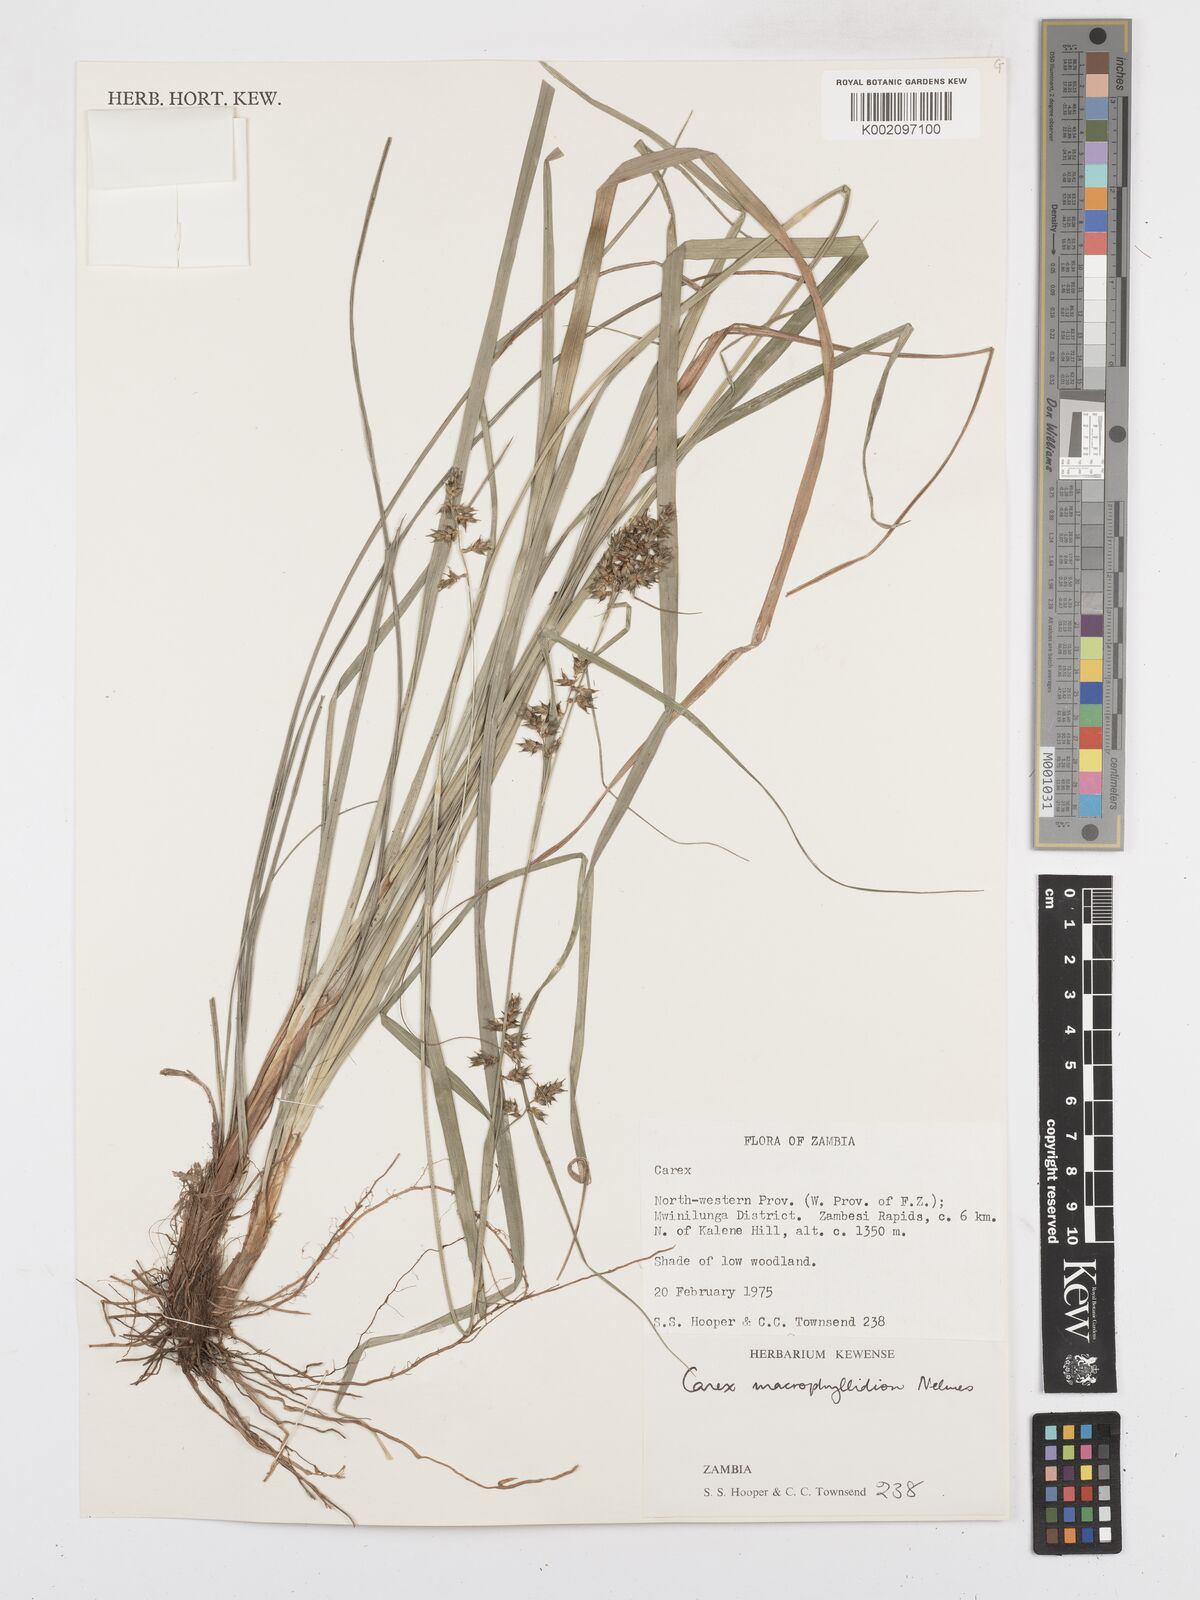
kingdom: Plantae
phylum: Tracheophyta
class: Liliopsida
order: Poales
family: Cyperaceae
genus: Carex
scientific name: Carex macrophyllidion
